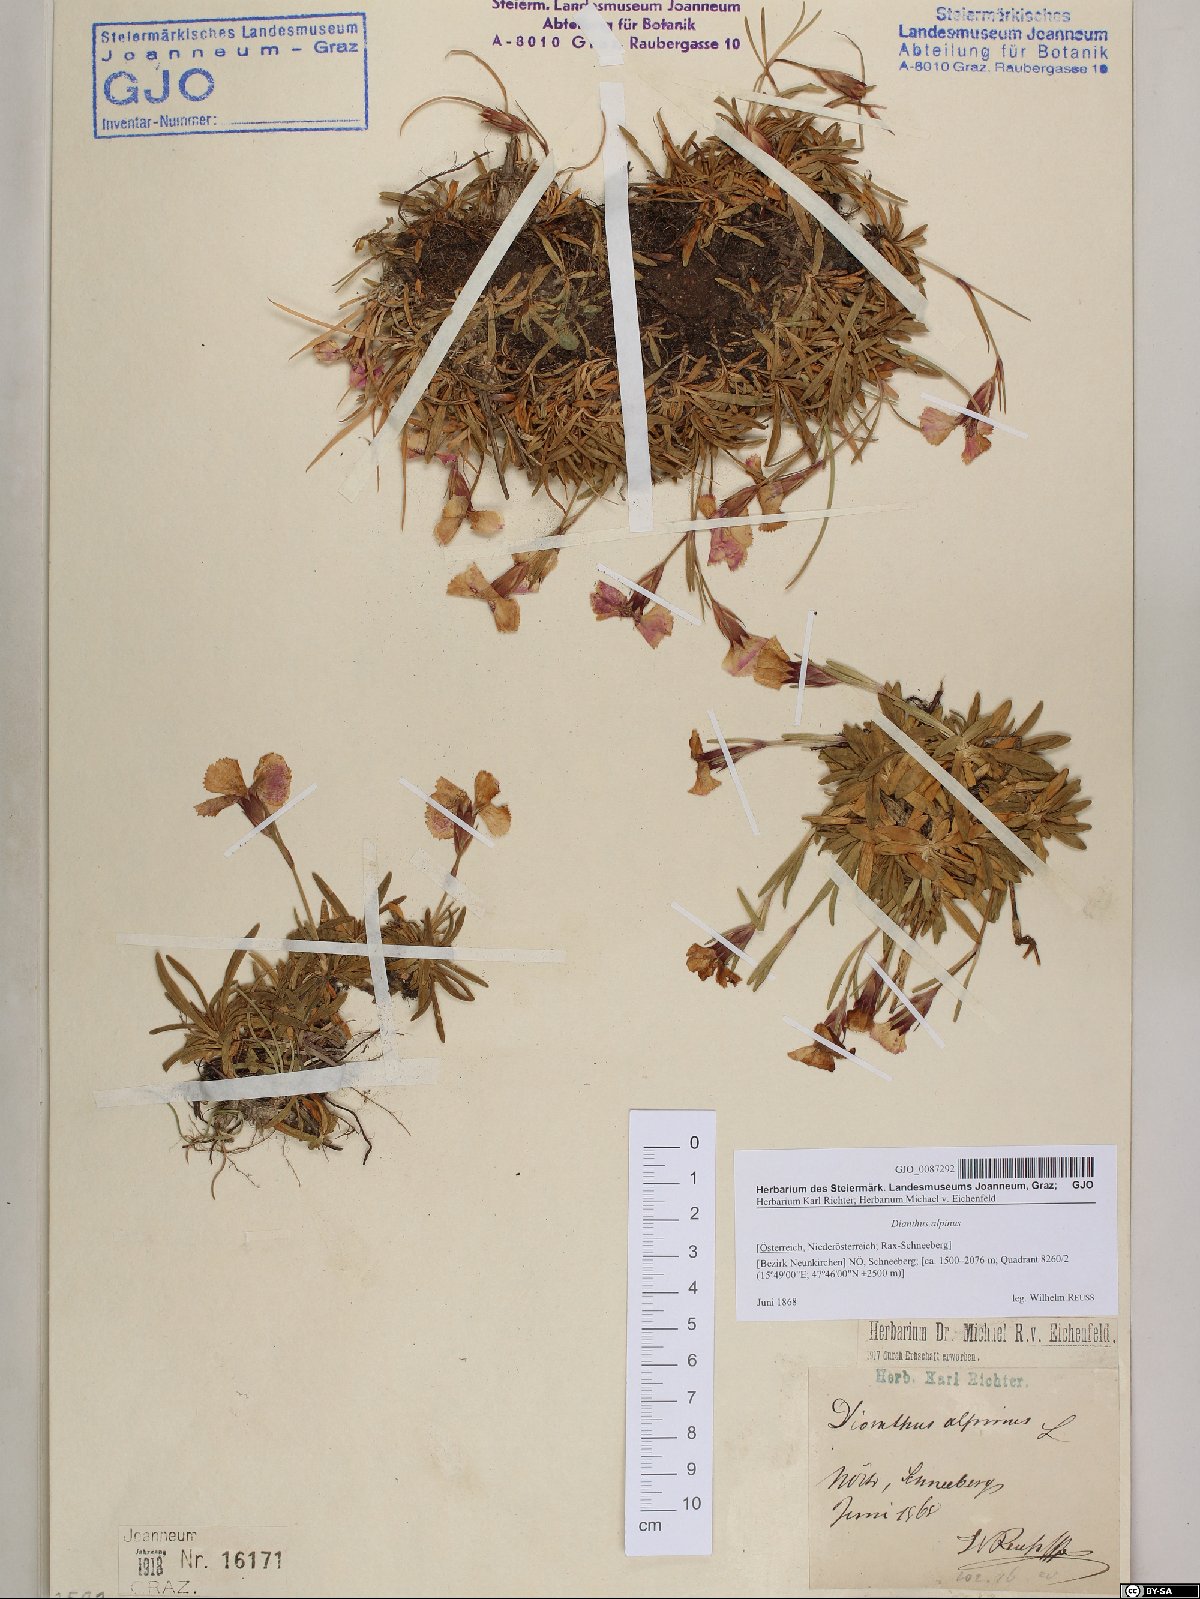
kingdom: Plantae
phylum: Tracheophyta
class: Magnoliopsida
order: Caryophyllales
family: Caryophyllaceae
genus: Dianthus
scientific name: Dianthus alpinus
